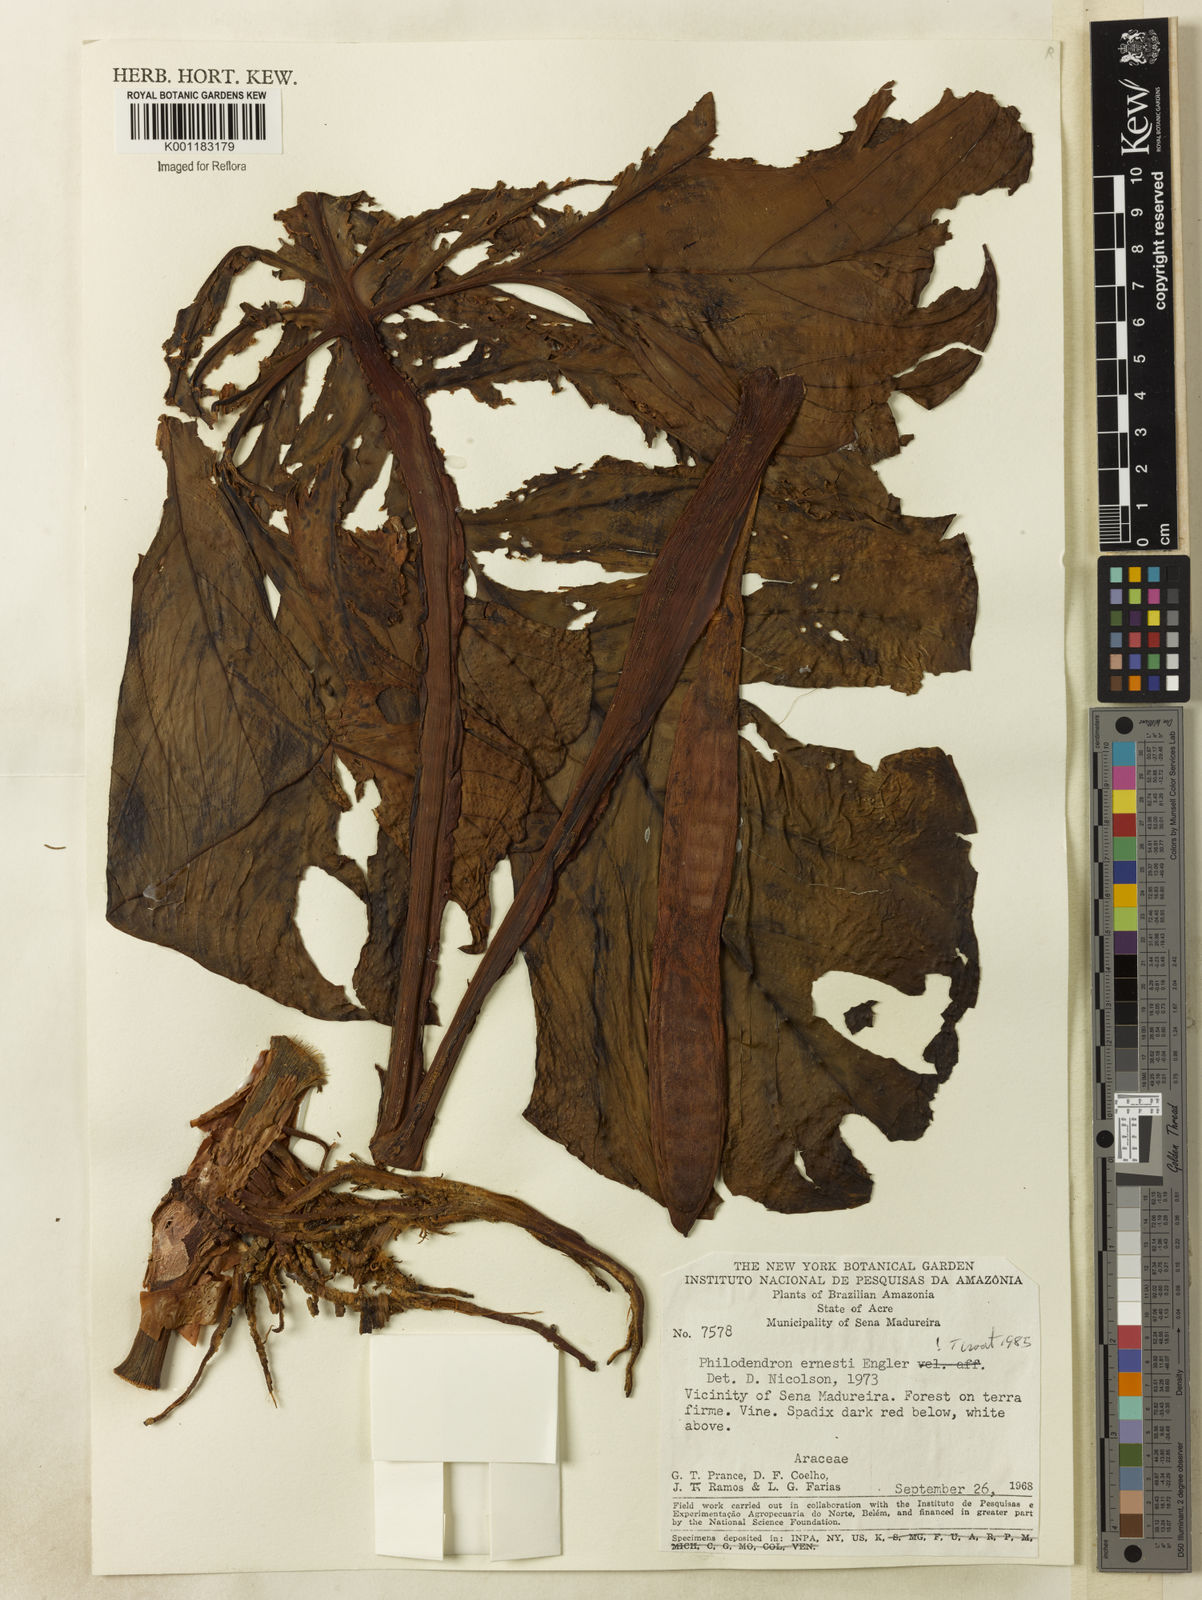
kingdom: Plantae
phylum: Tracheophyta
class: Liliopsida
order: Alismatales
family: Araceae
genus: Philodendron
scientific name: Philodendron ernestii
